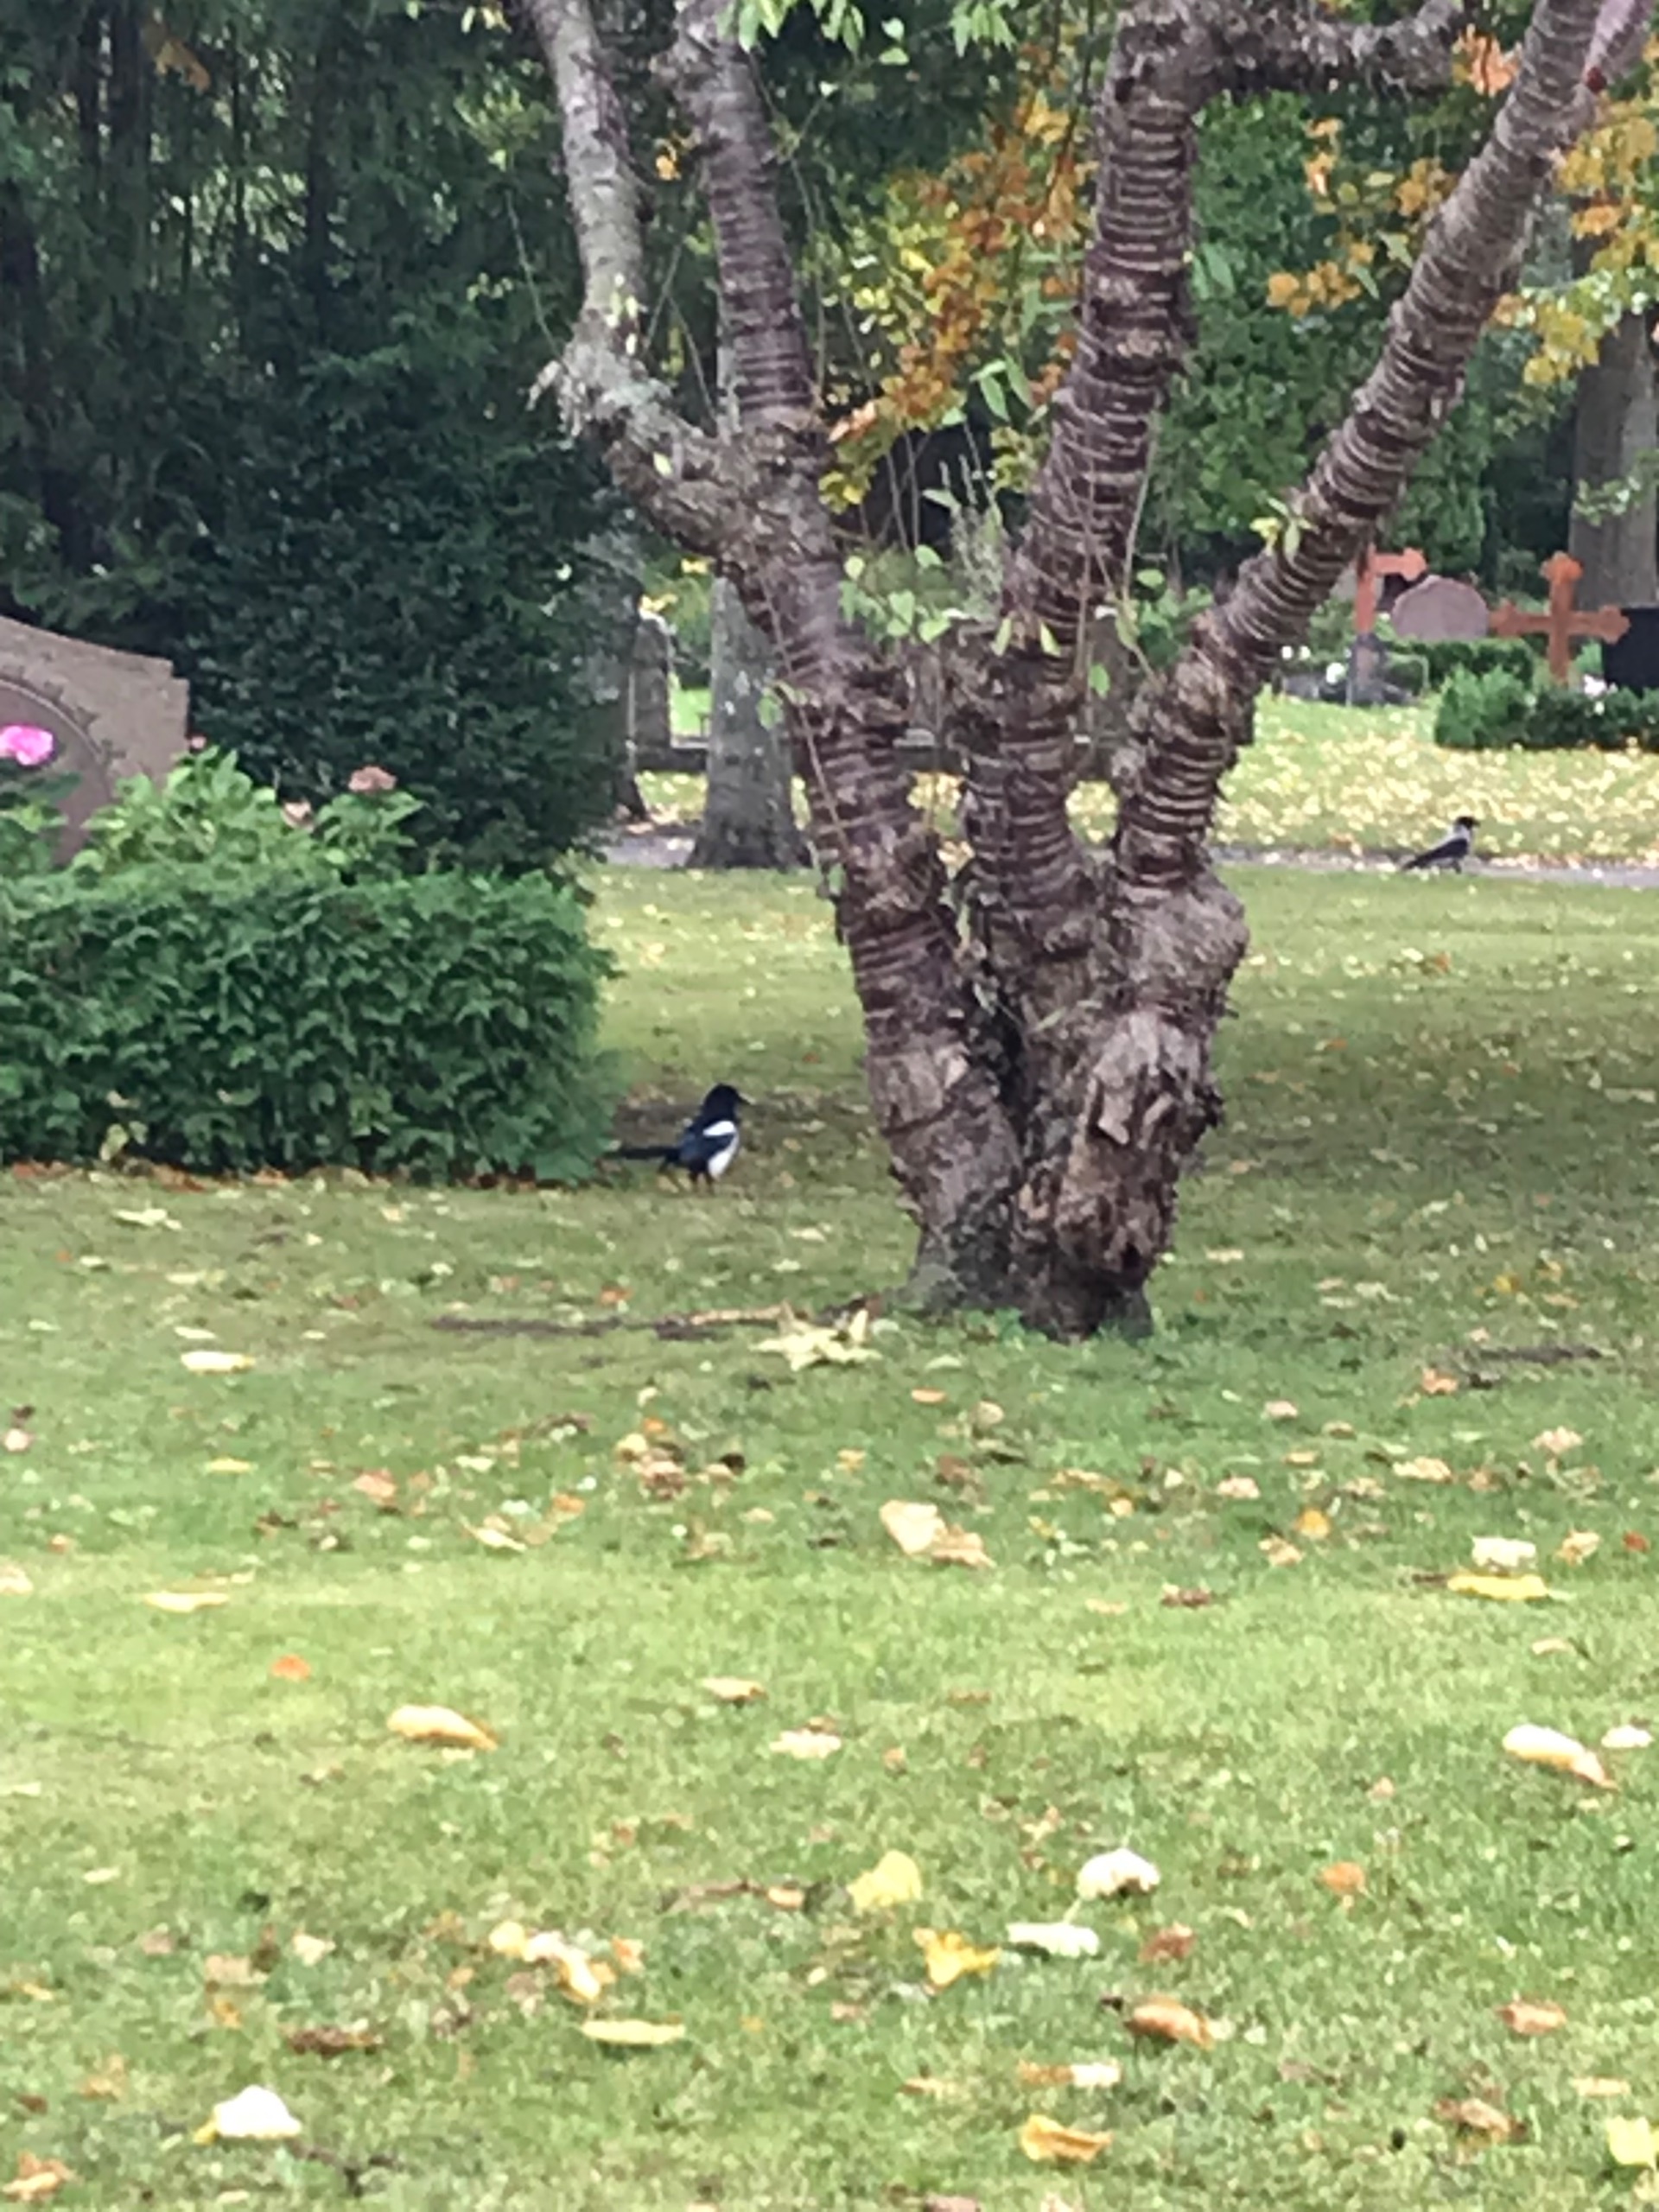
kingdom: Animalia
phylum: Chordata
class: Aves
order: Passeriformes
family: Corvidae
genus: Pica
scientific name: Pica pica
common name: Husskade
